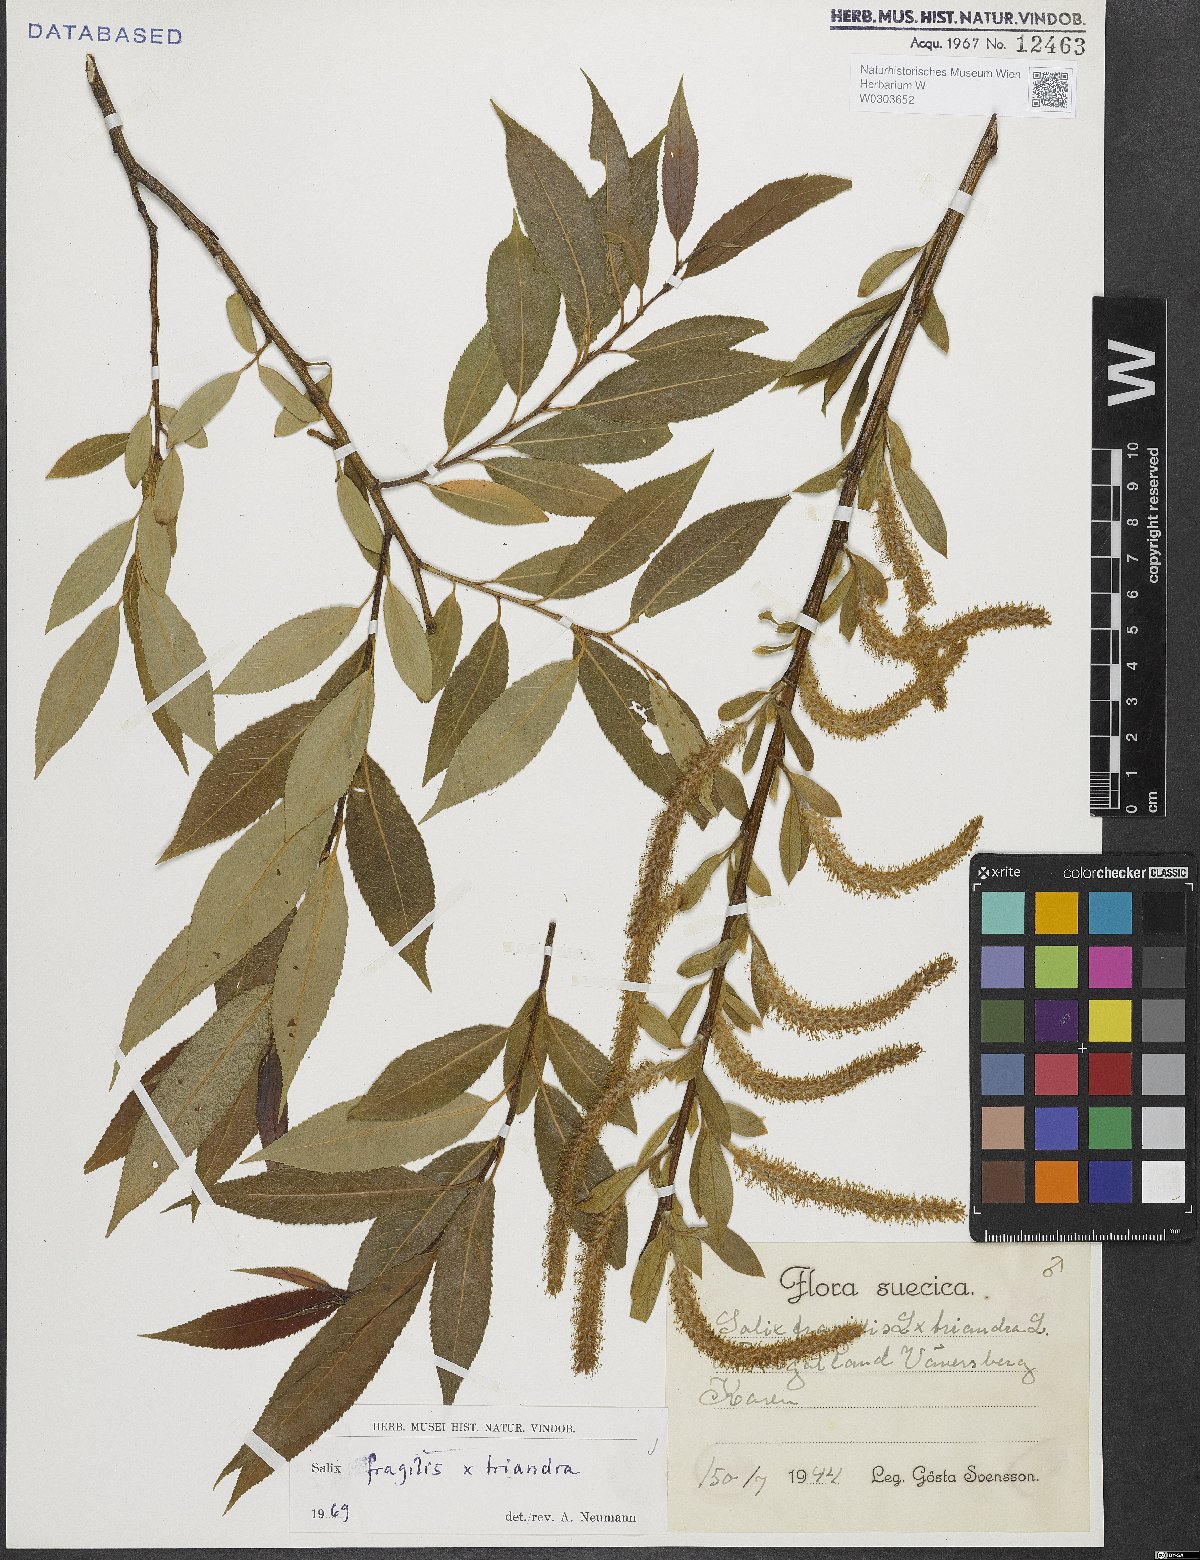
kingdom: Plantae
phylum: Tracheophyta
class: Magnoliopsida
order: Malpighiales
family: Salicaceae
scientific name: Salicaceae
